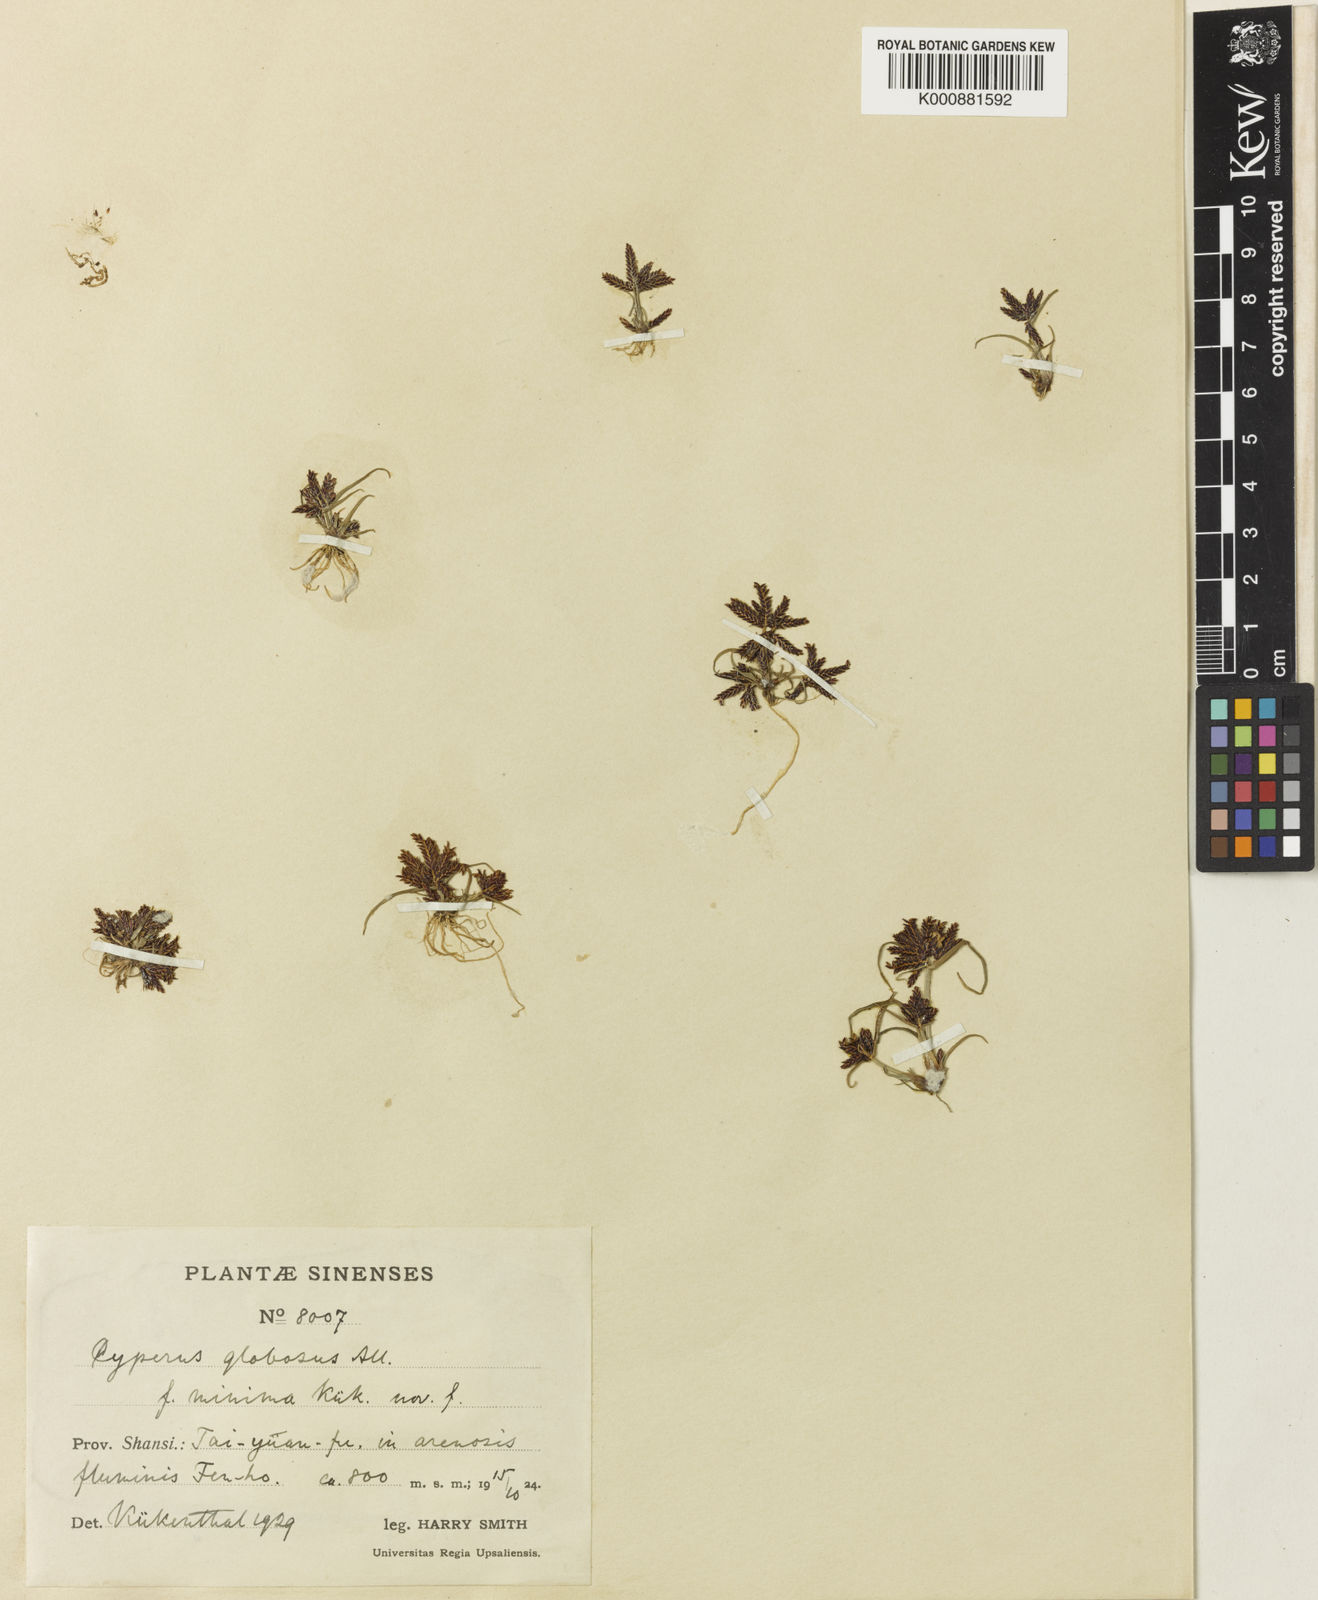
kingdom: Plantae
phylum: Tracheophyta
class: Liliopsida
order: Poales
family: Cyperaceae
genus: Cyperus
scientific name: Cyperus flavidus
